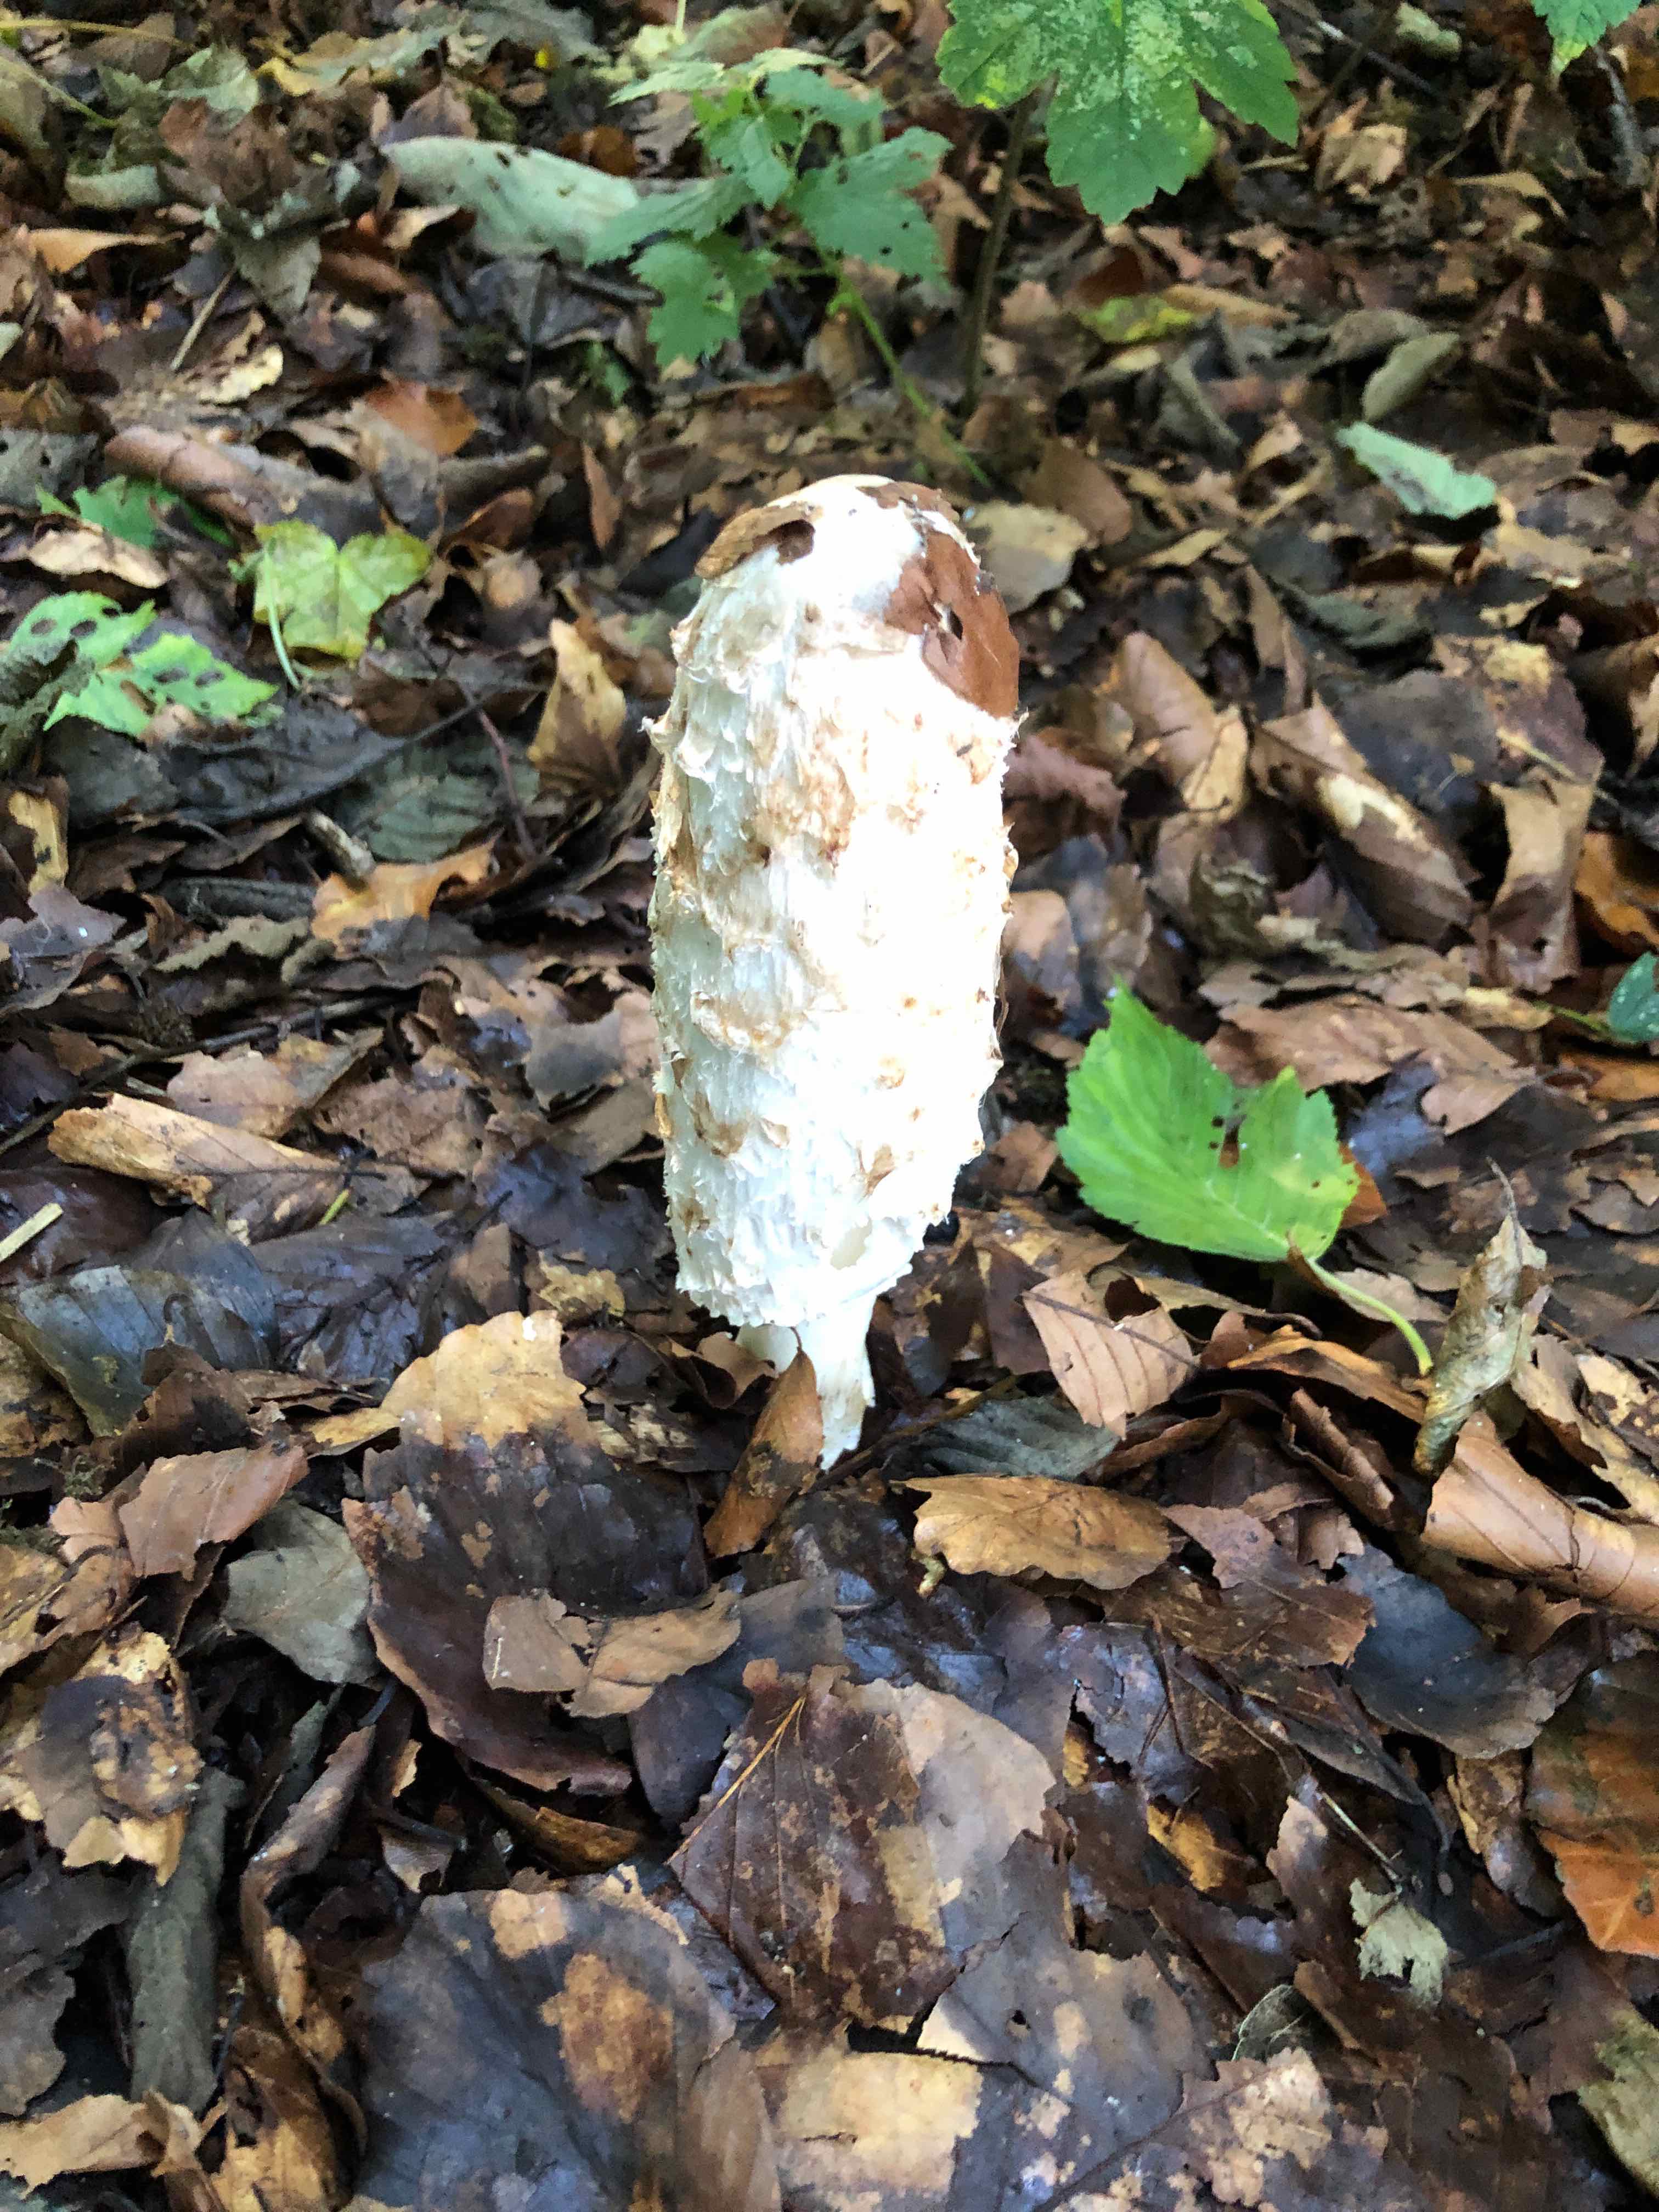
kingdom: Fungi
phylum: Basidiomycota
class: Agaricomycetes
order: Agaricales
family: Agaricaceae
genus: Coprinus
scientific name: Coprinus comatus
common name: stor parykhat
